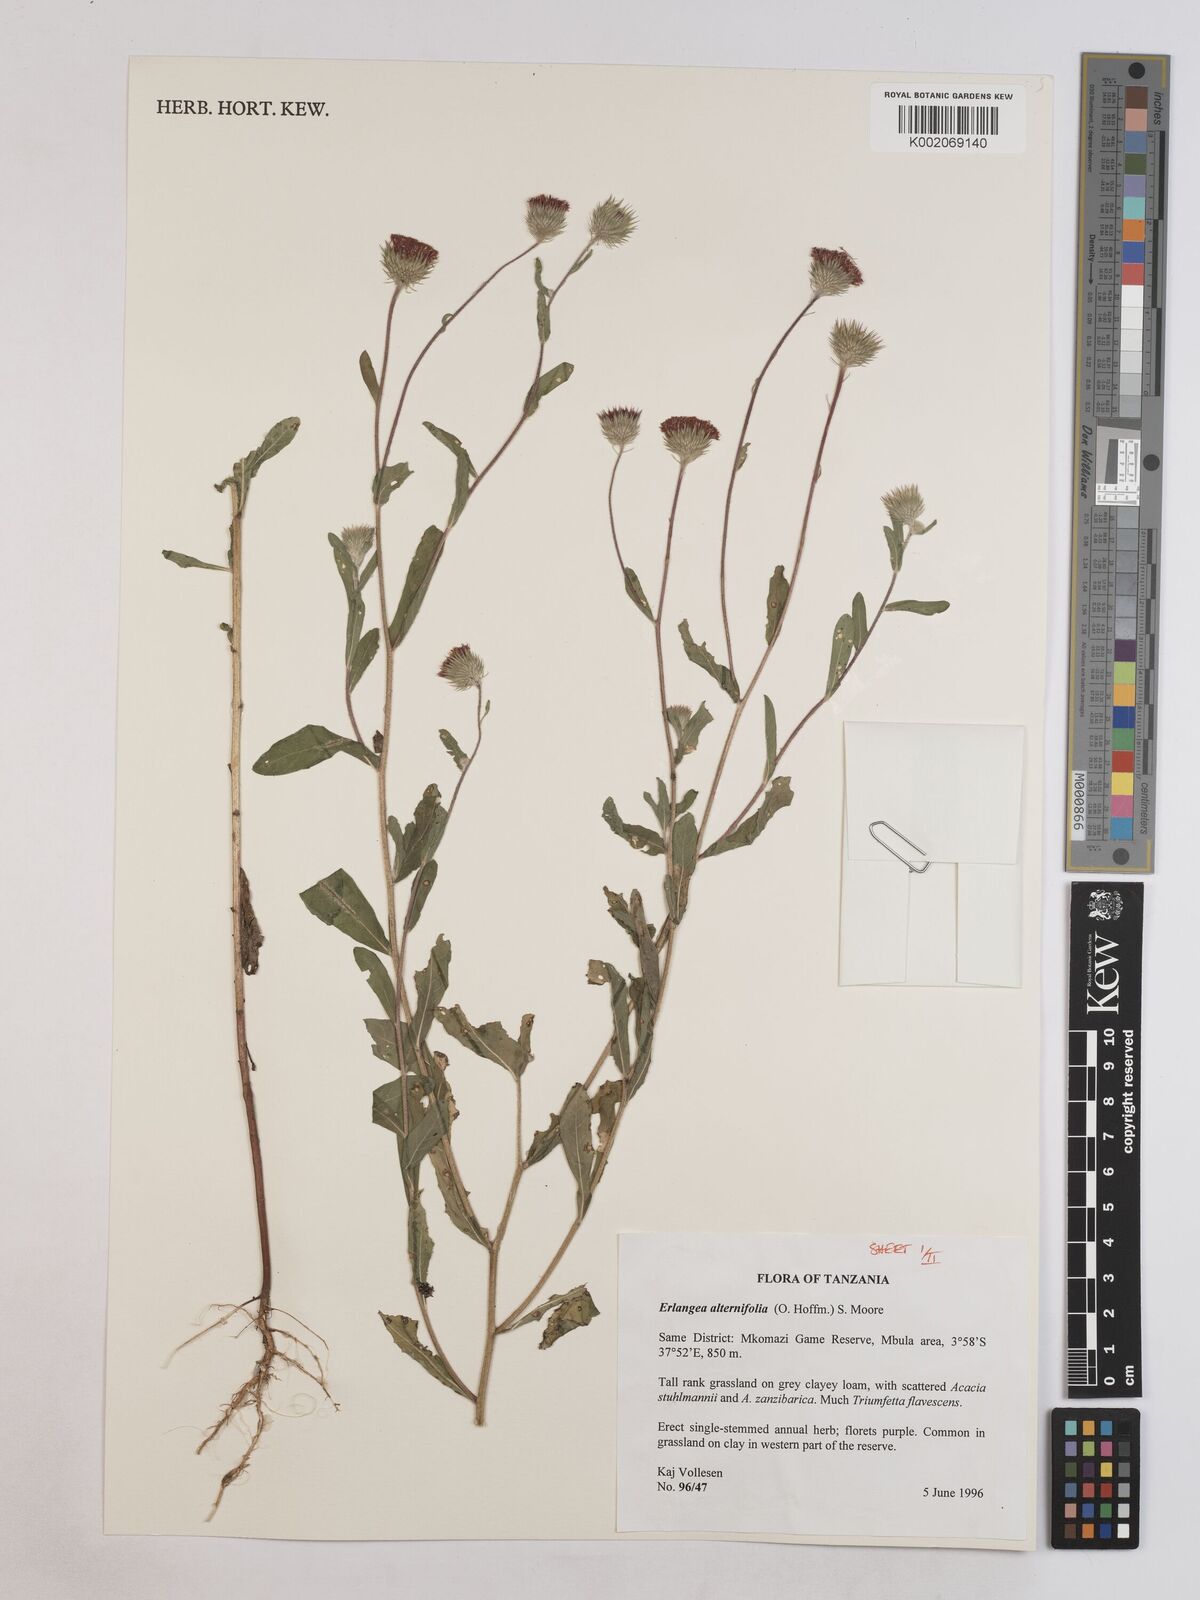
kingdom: Plantae
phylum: Tracheophyta
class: Magnoliopsida
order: Asterales
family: Asteraceae
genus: Erlangea
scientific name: Erlangea alternifolia
